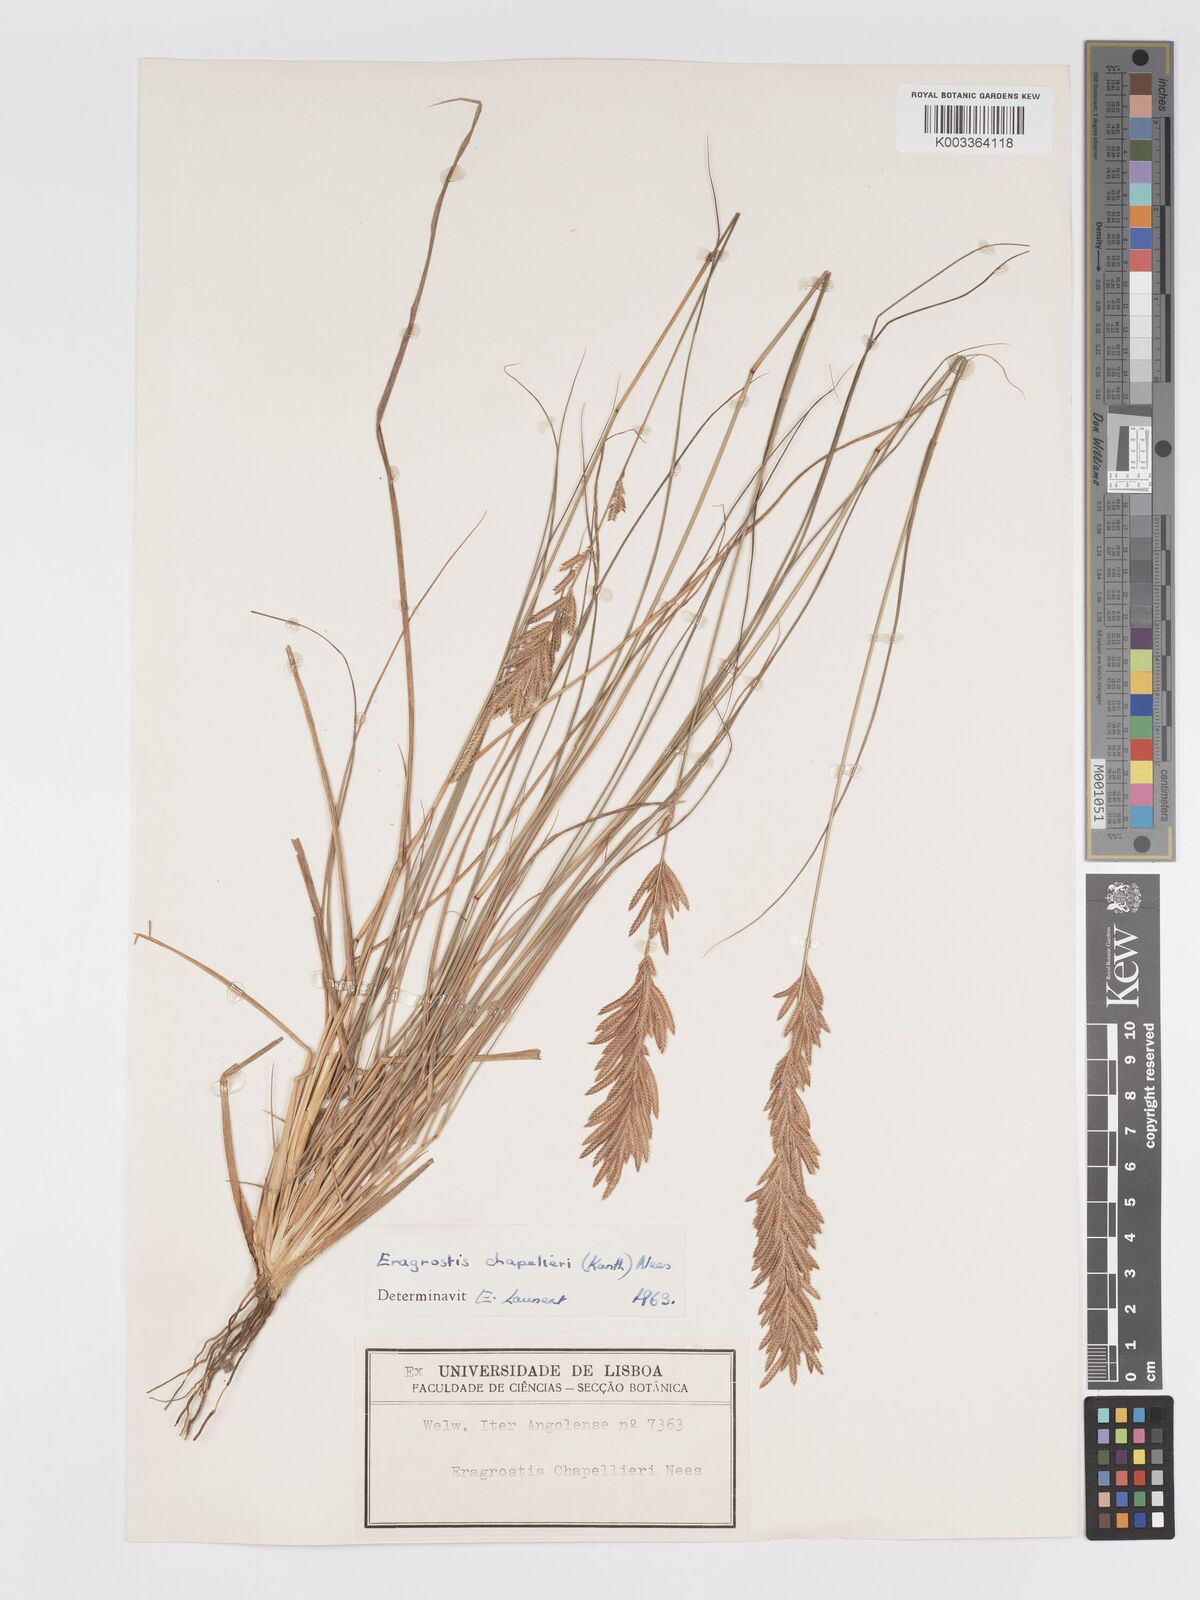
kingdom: Plantae
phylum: Tracheophyta
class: Liliopsida
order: Poales
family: Poaceae
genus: Eragrostis
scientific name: Eragrostis chapelieri
